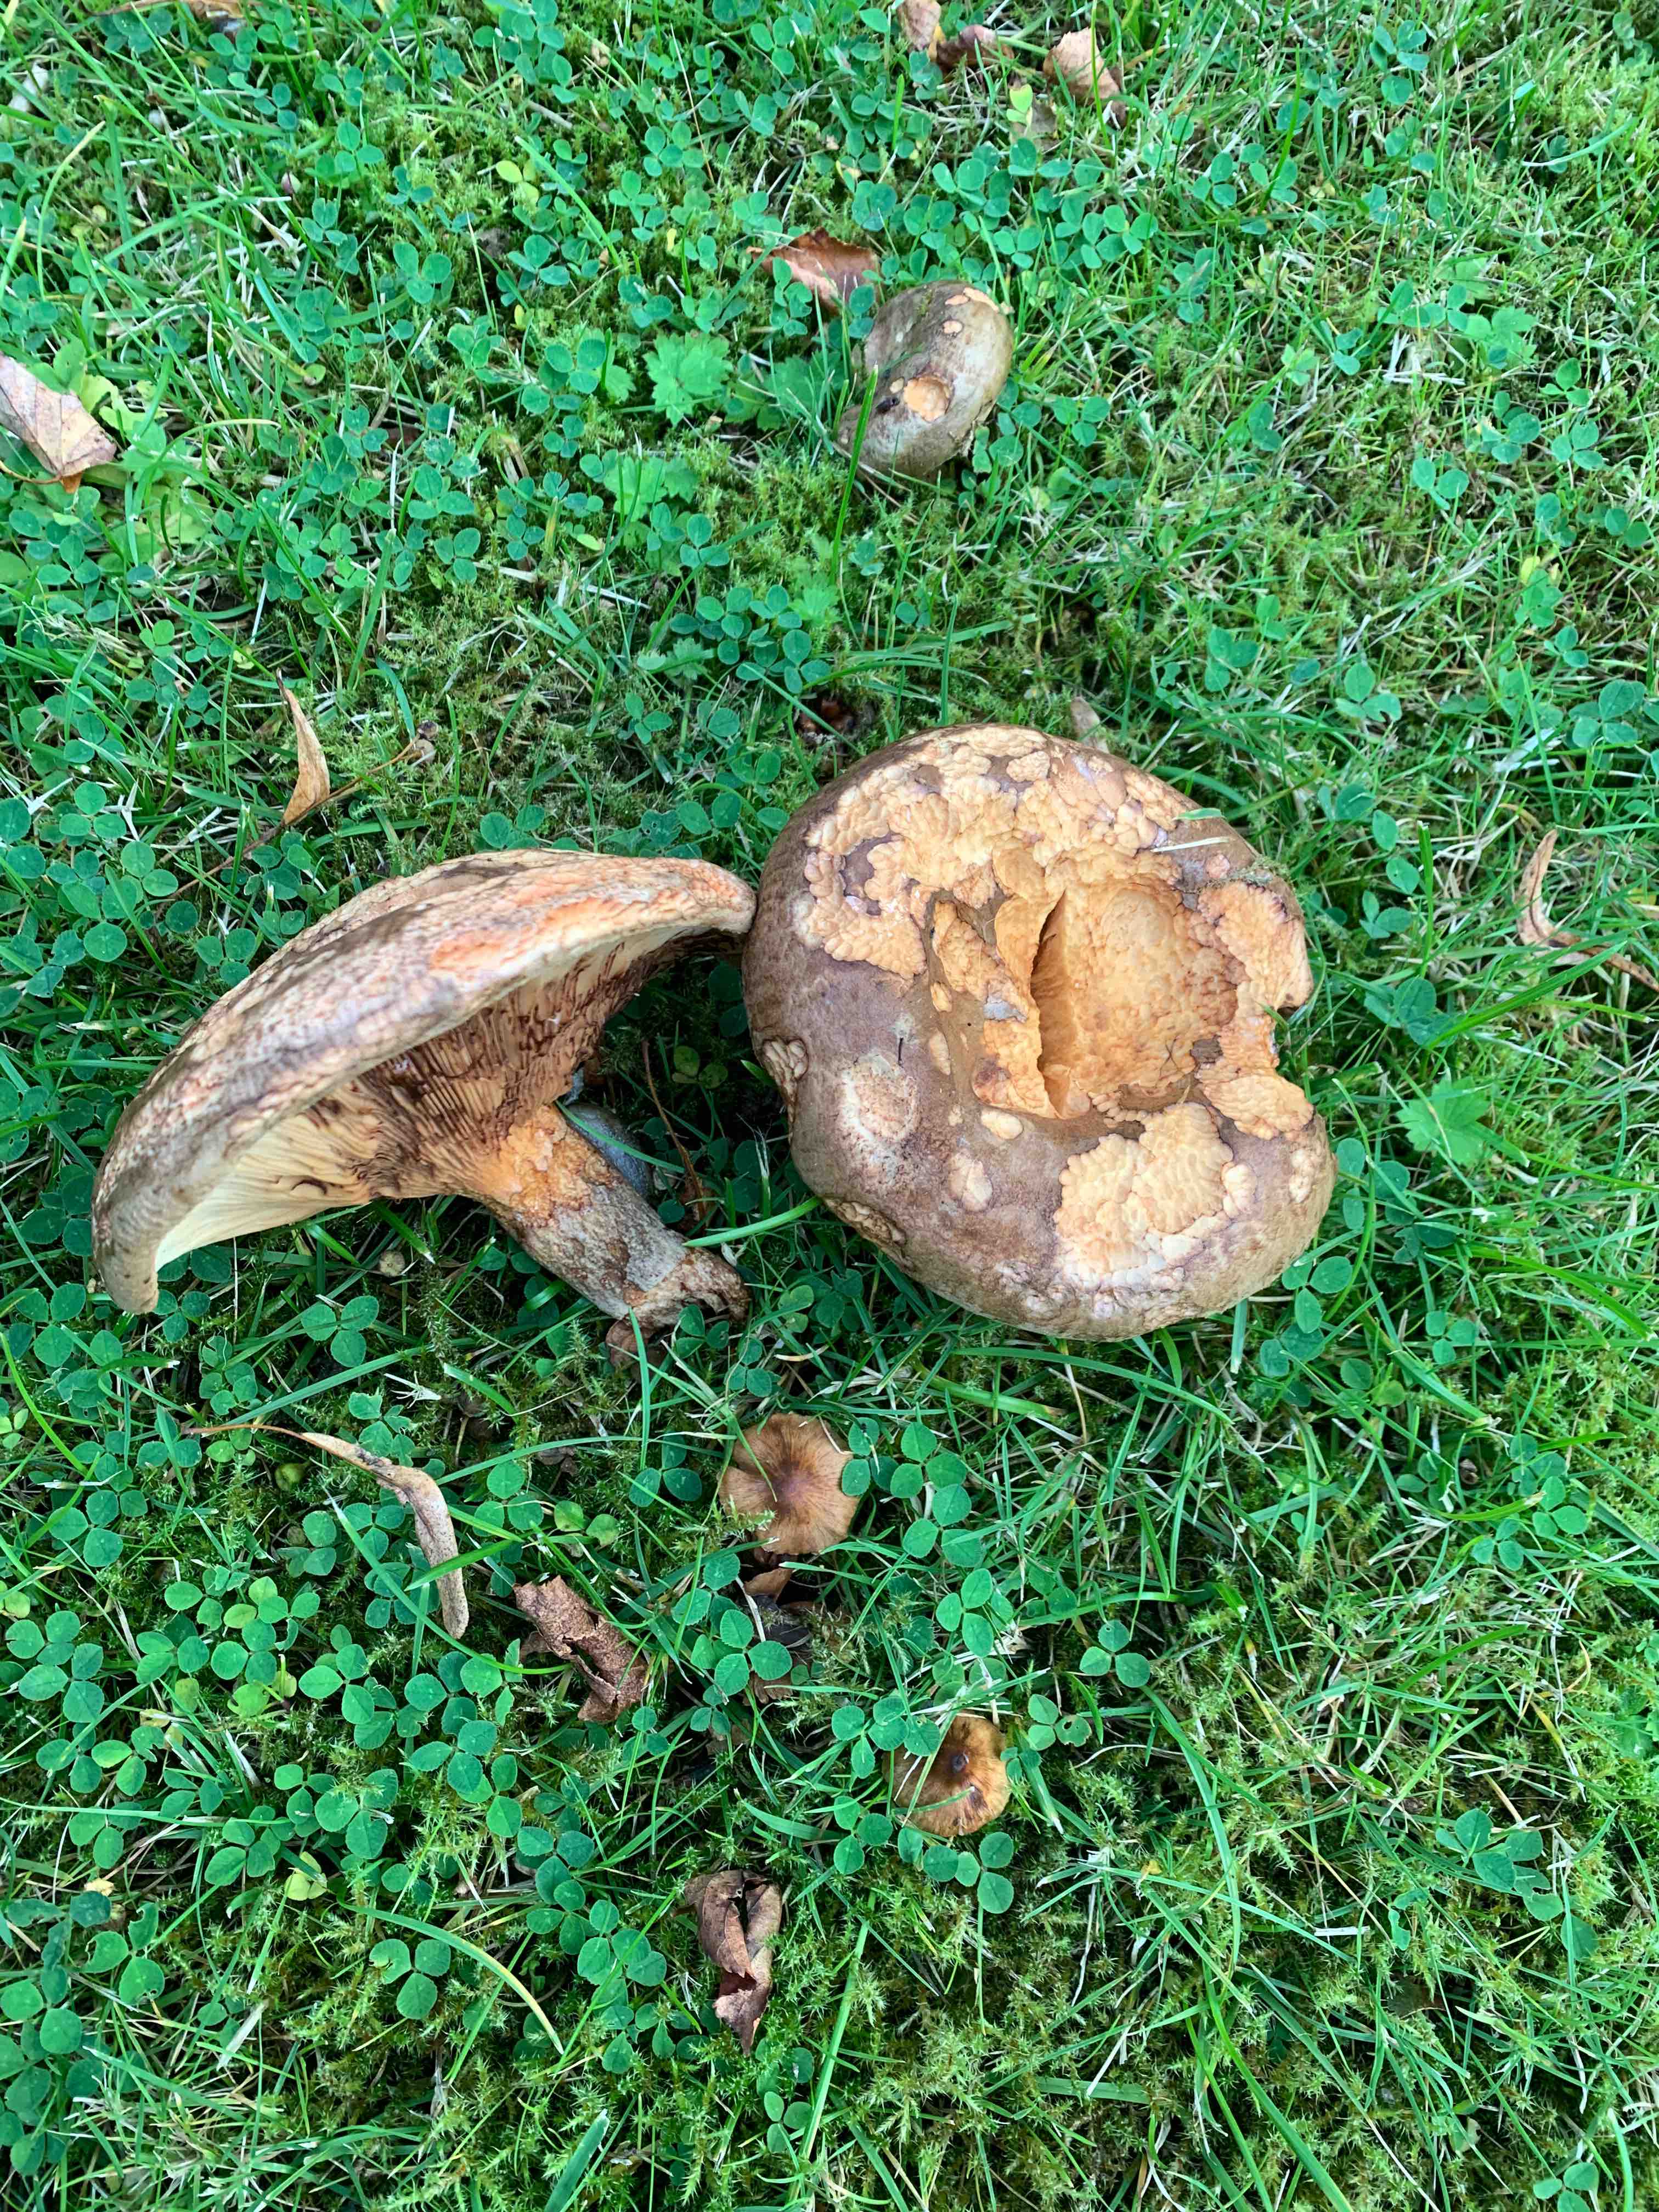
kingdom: Fungi
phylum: Basidiomycota
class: Agaricomycetes
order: Boletales
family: Paxillaceae
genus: Paxillus
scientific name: Paxillus
